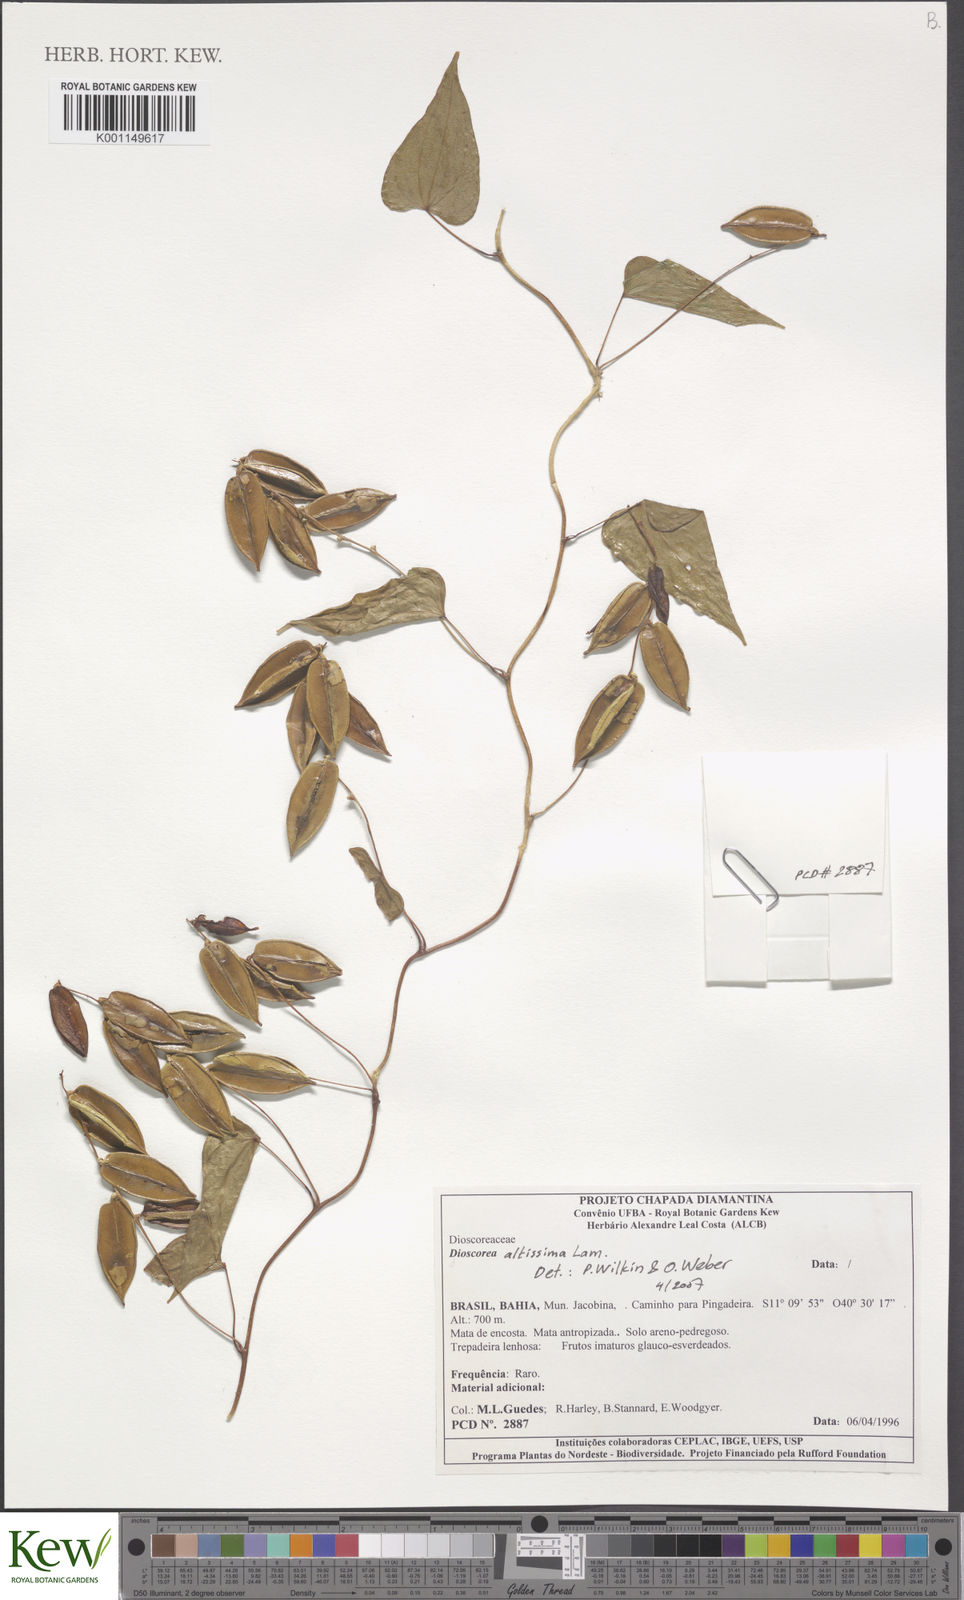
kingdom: Plantae
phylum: Tracheophyta
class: Liliopsida
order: Dioscoreales
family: Dioscoreaceae
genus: Dioscorea
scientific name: Dioscorea chondrocarpa
